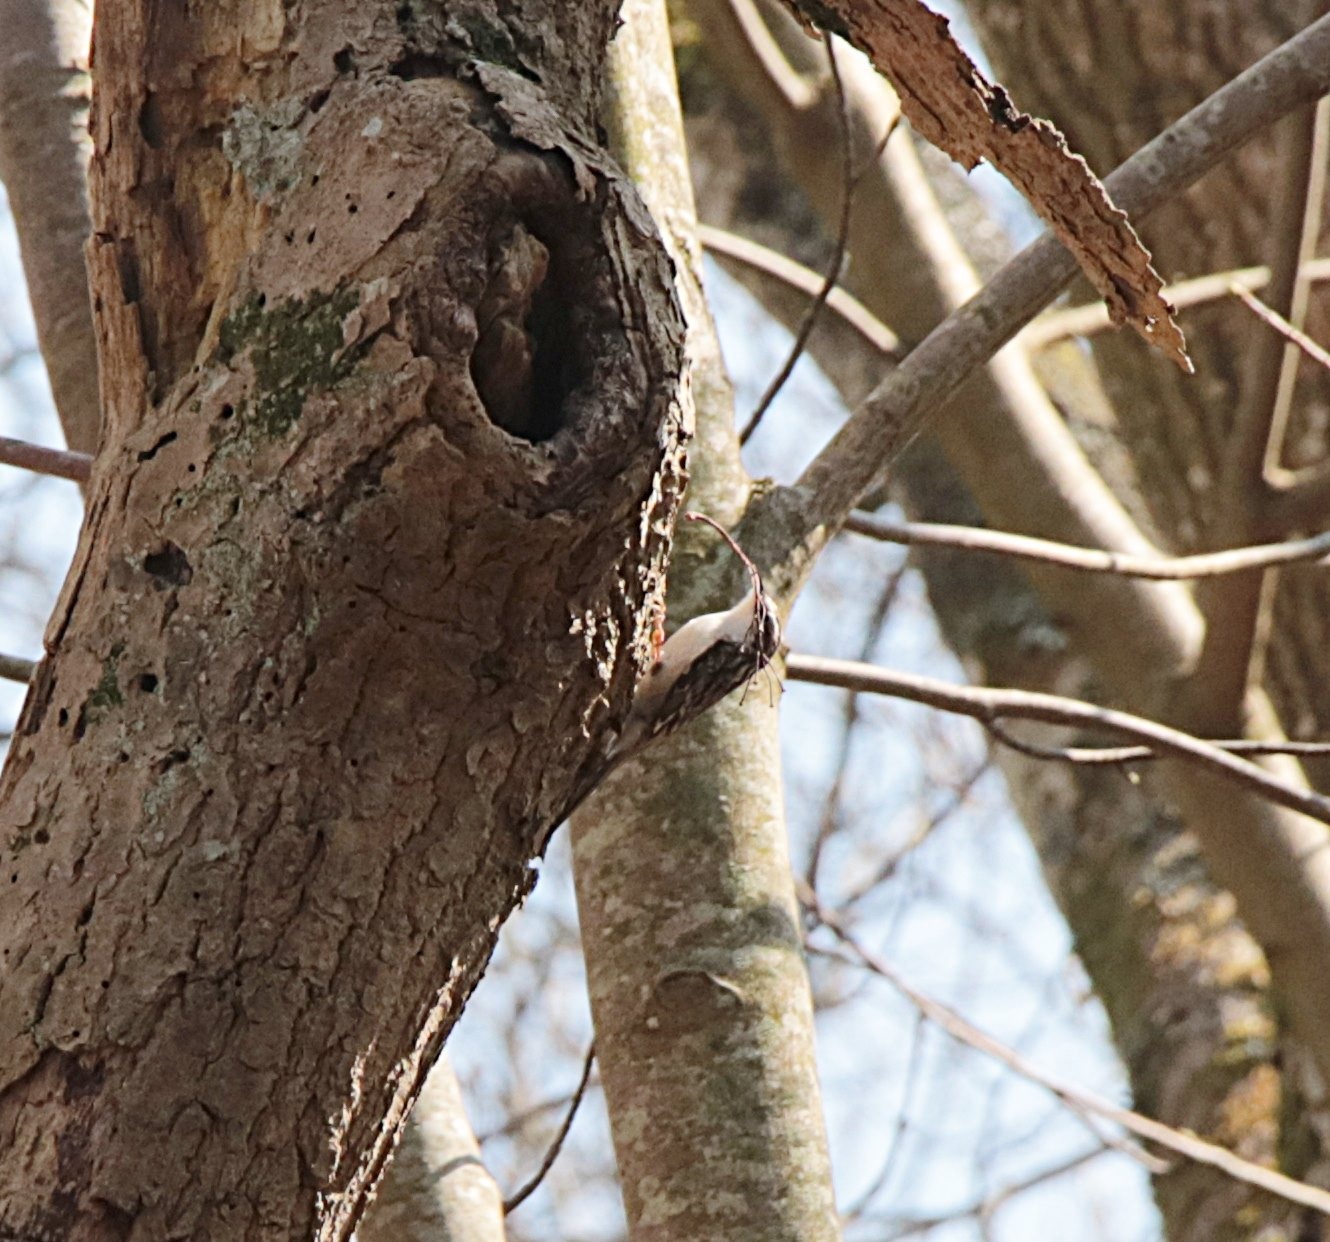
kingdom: Animalia
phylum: Chordata
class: Aves
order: Passeriformes
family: Certhiidae
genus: Certhia
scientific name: Certhia familiaris
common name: Træløber
